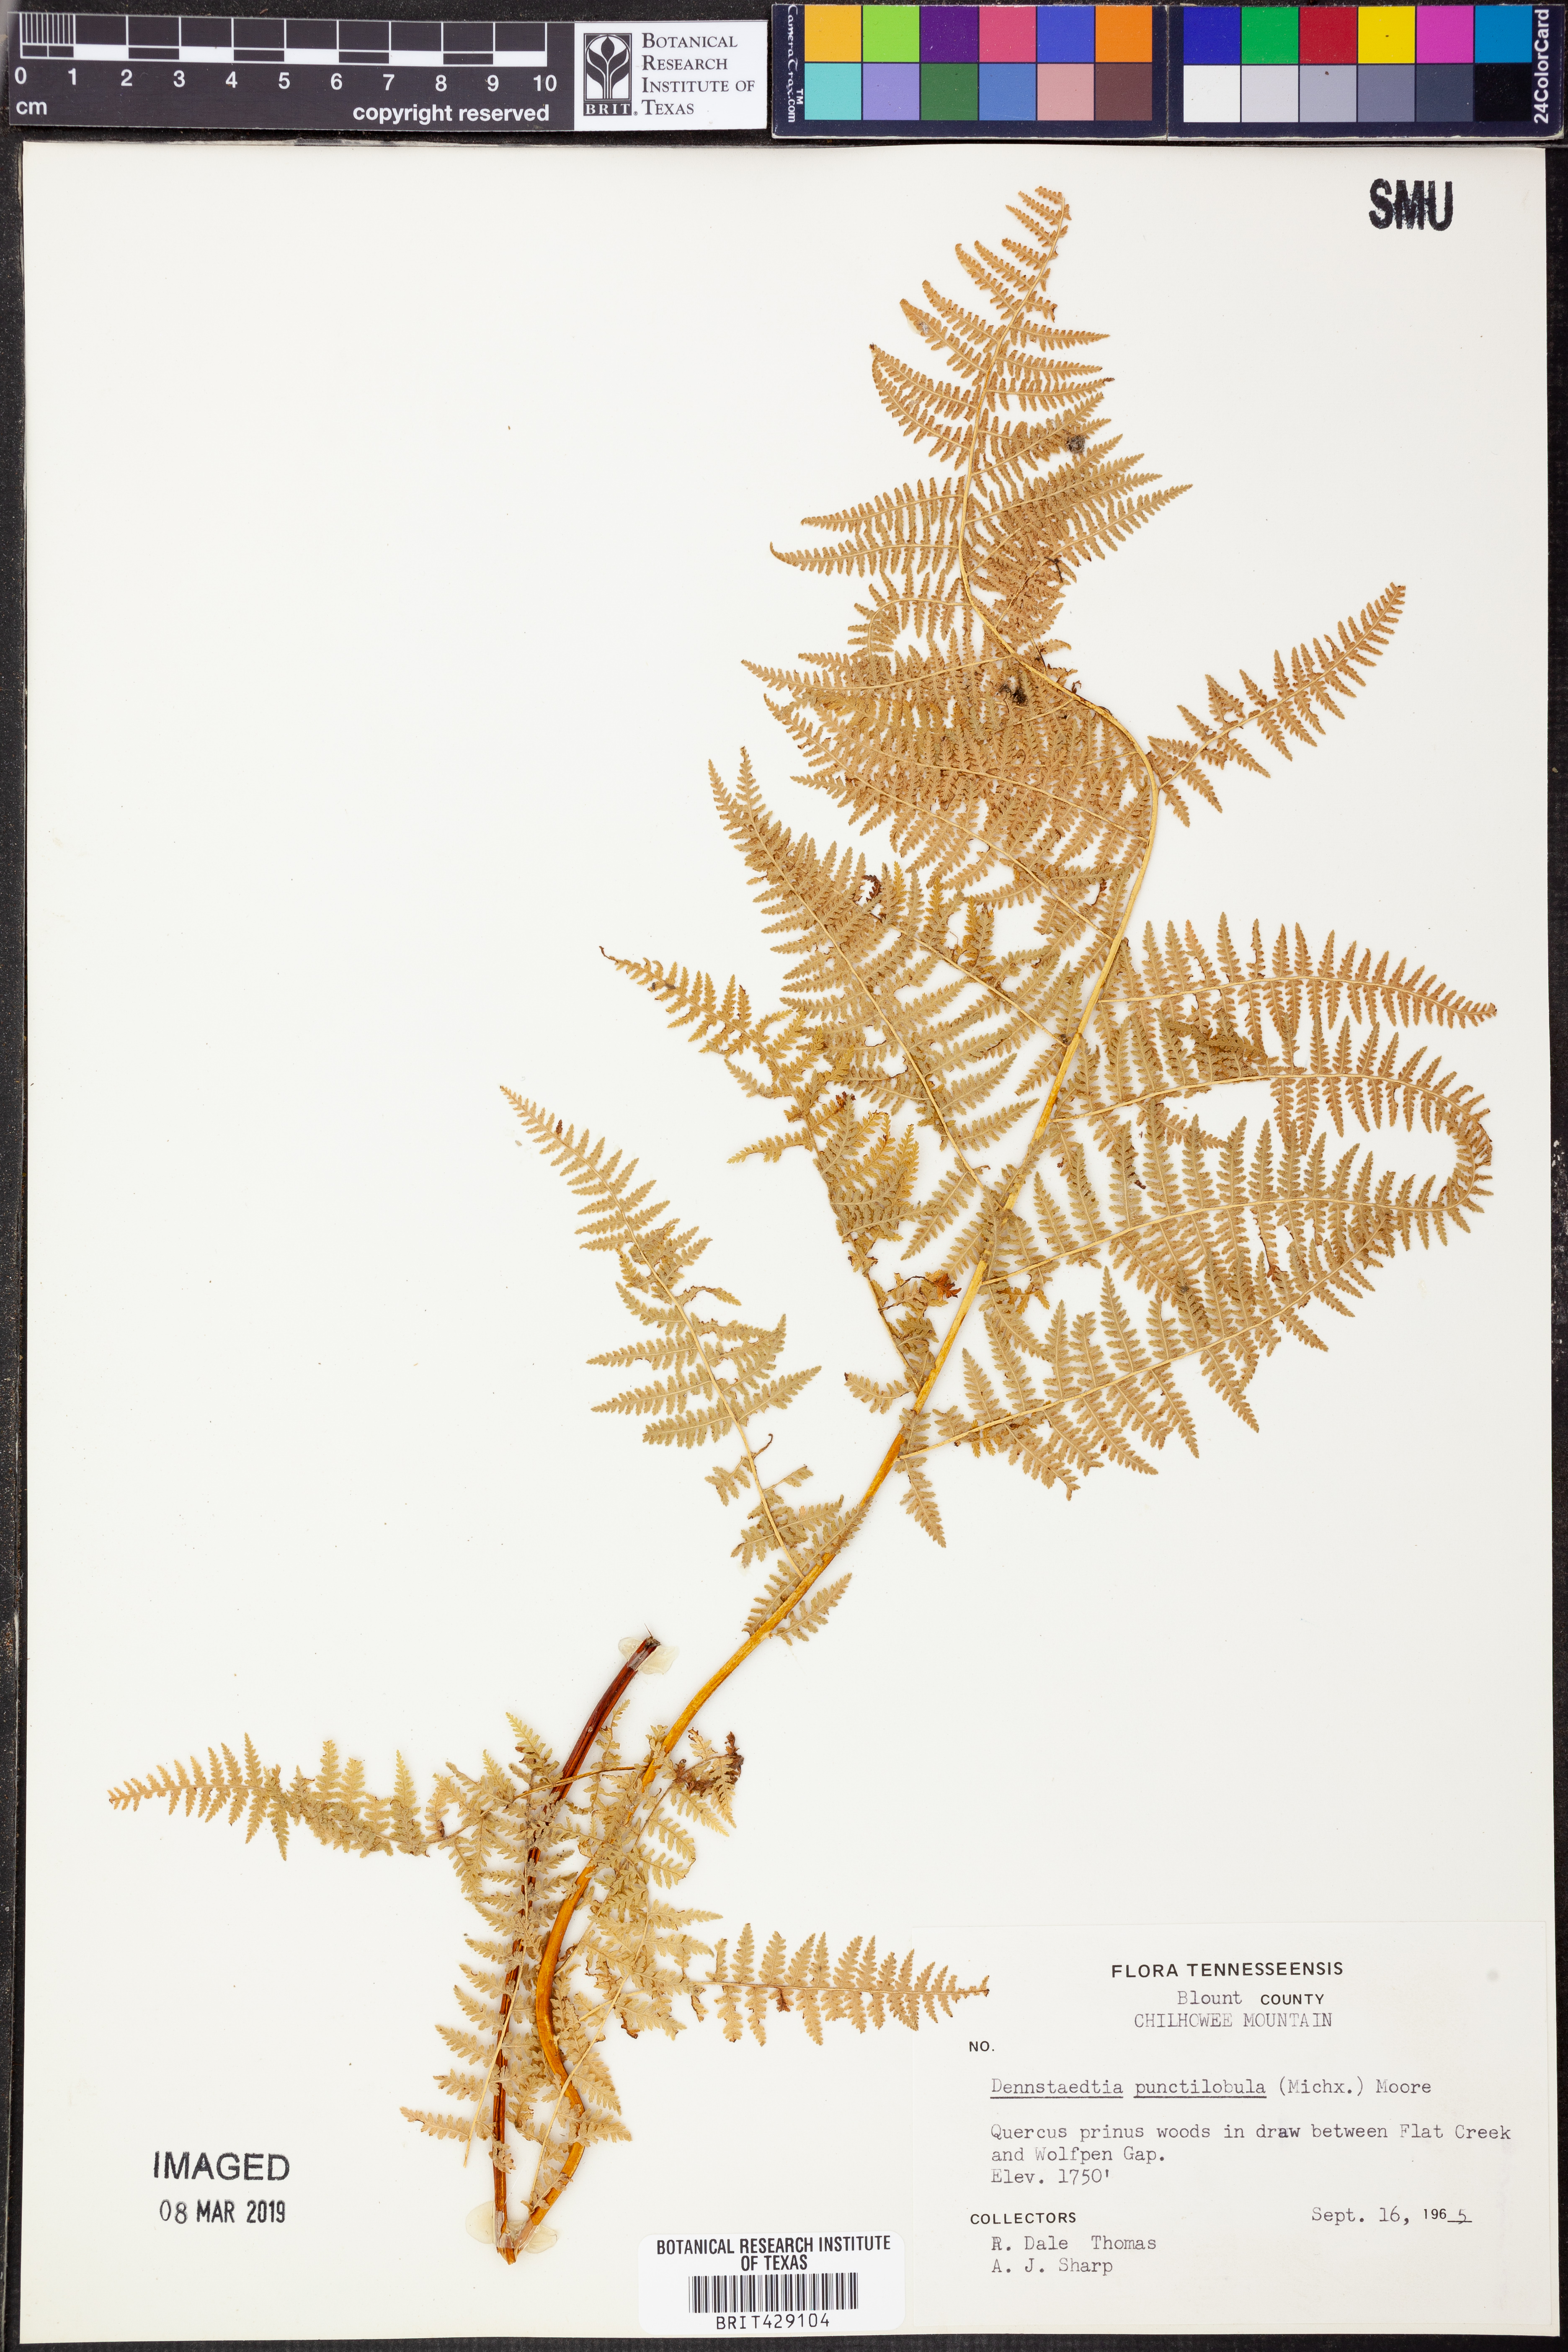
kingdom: Plantae
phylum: Tracheophyta
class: Polypodiopsida
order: Polypodiales
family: Dennstaedtiaceae
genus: Sitobolium
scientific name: Sitobolium punctilobum
